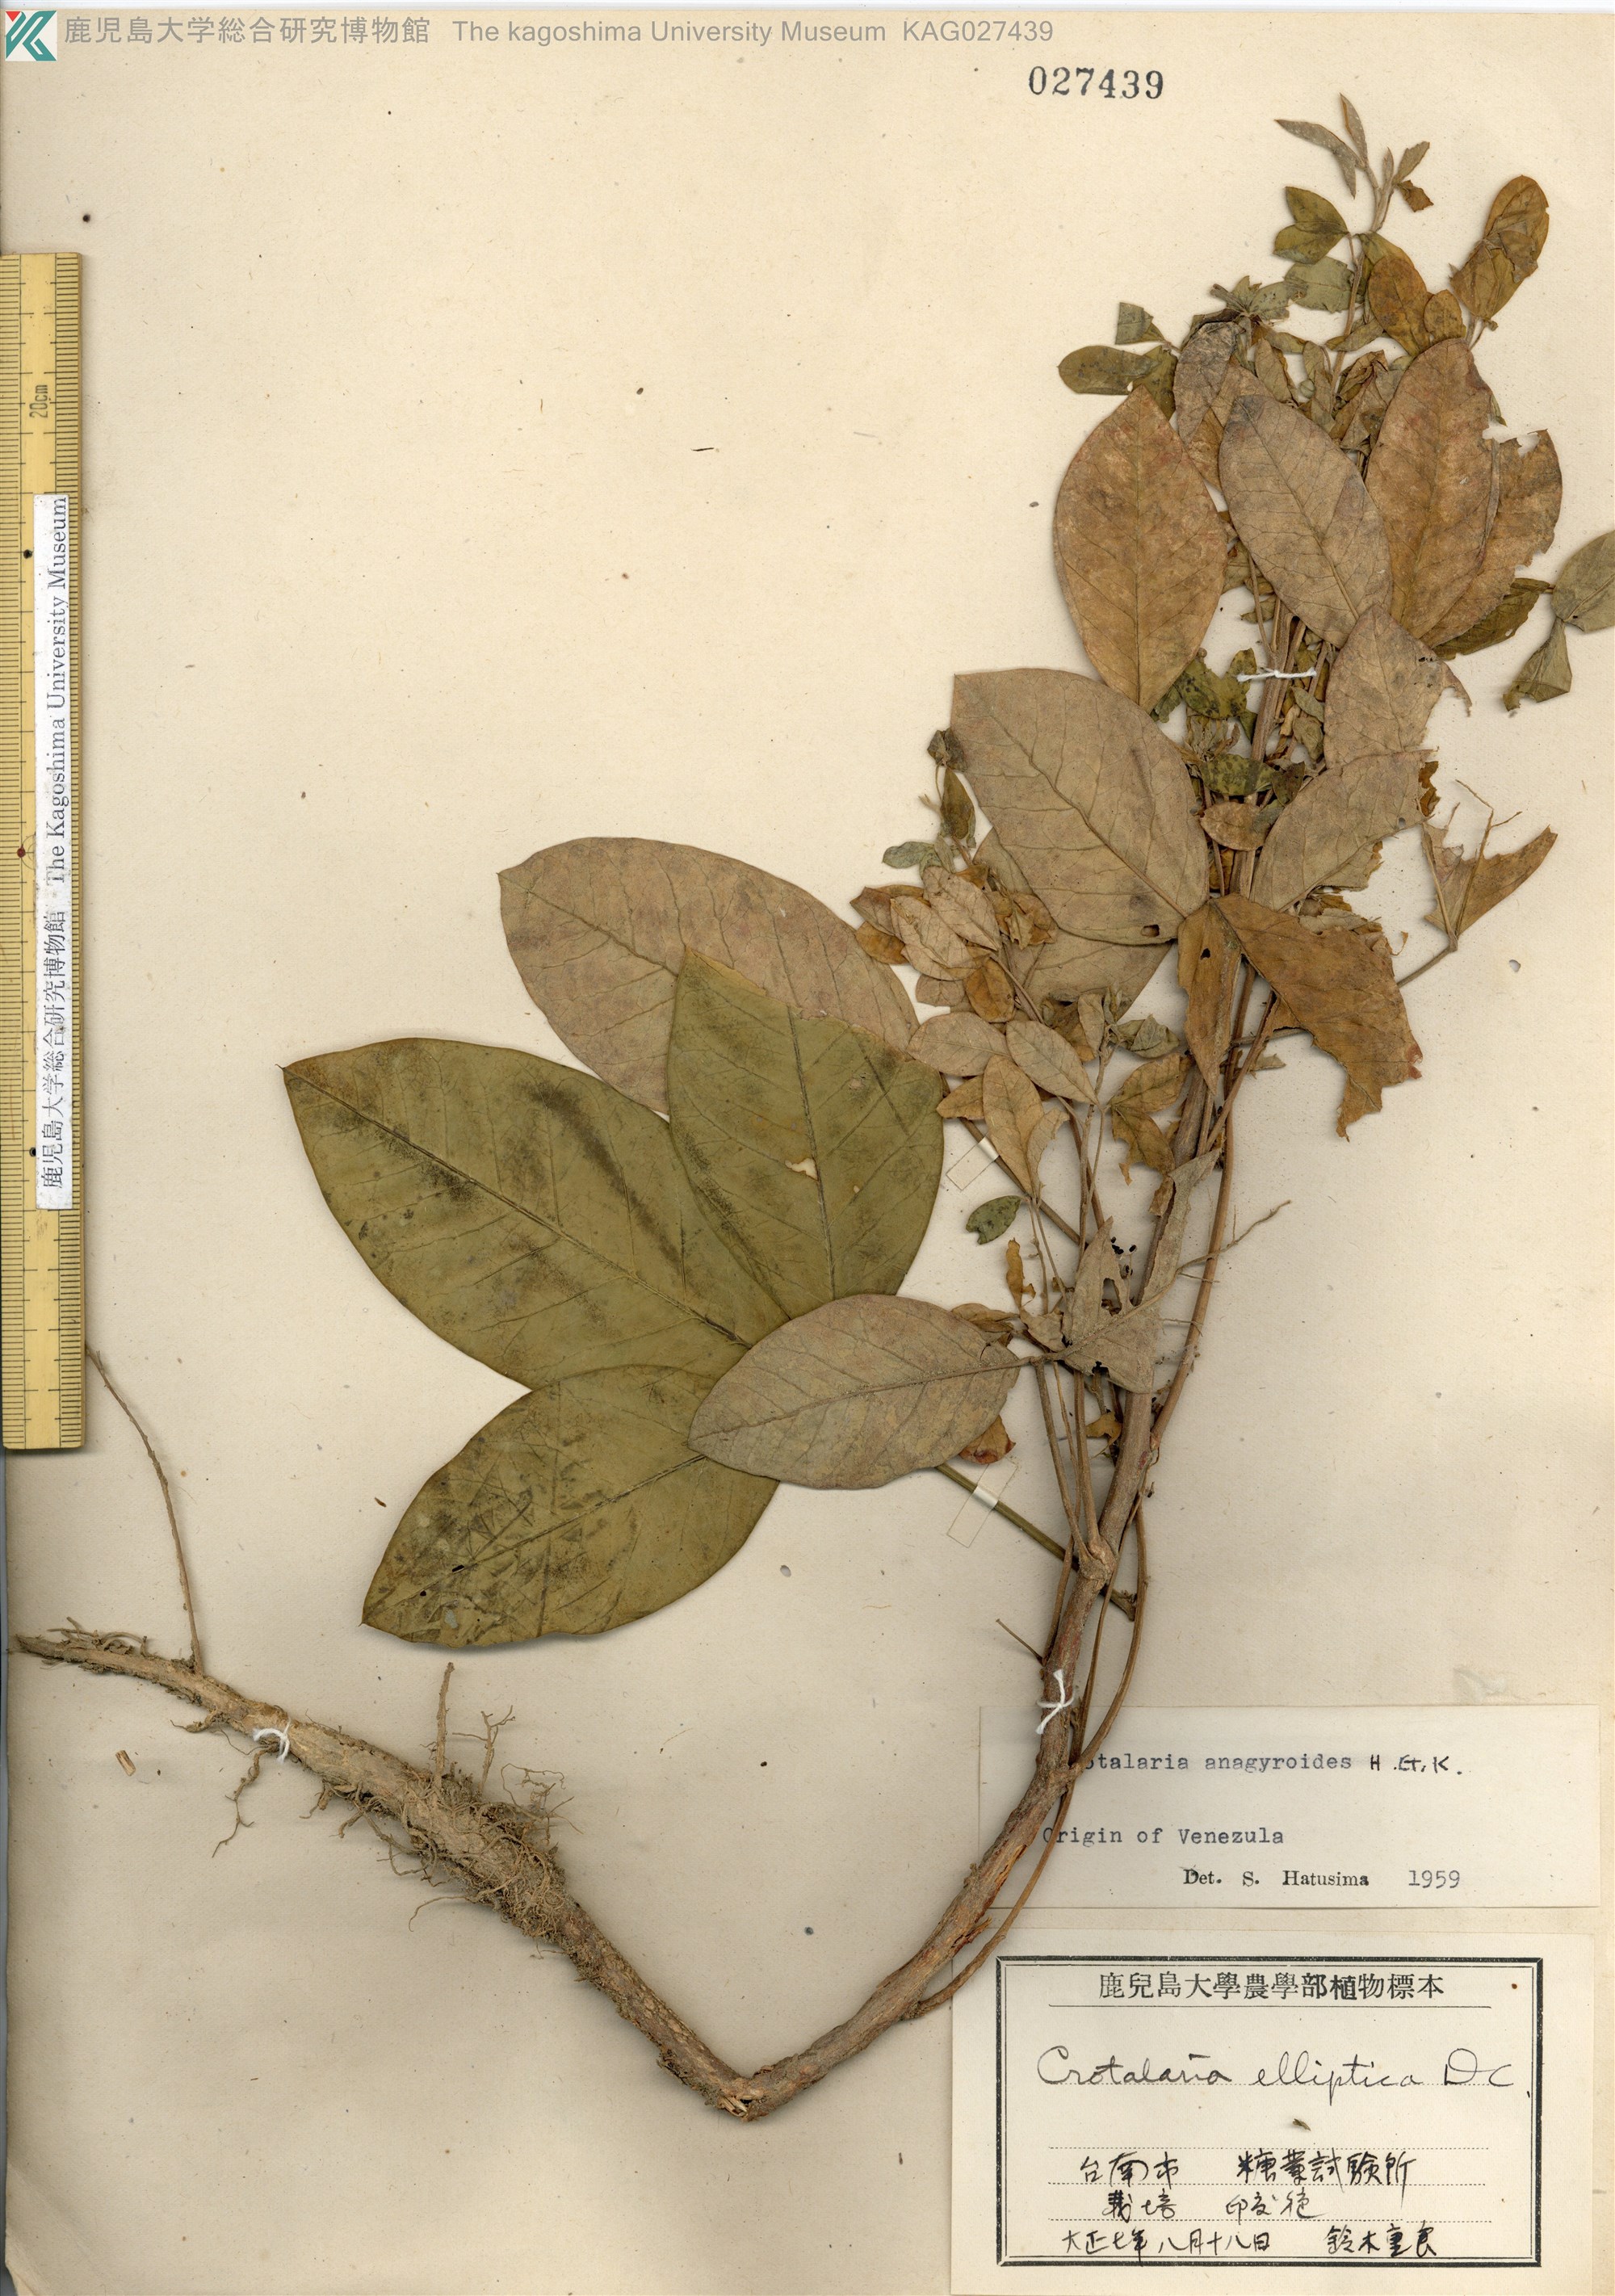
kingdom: Plantae
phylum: Tracheophyta
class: Magnoliopsida
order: Fabales
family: Fabaceae
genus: Crotalaria
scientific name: Crotalaria micans
